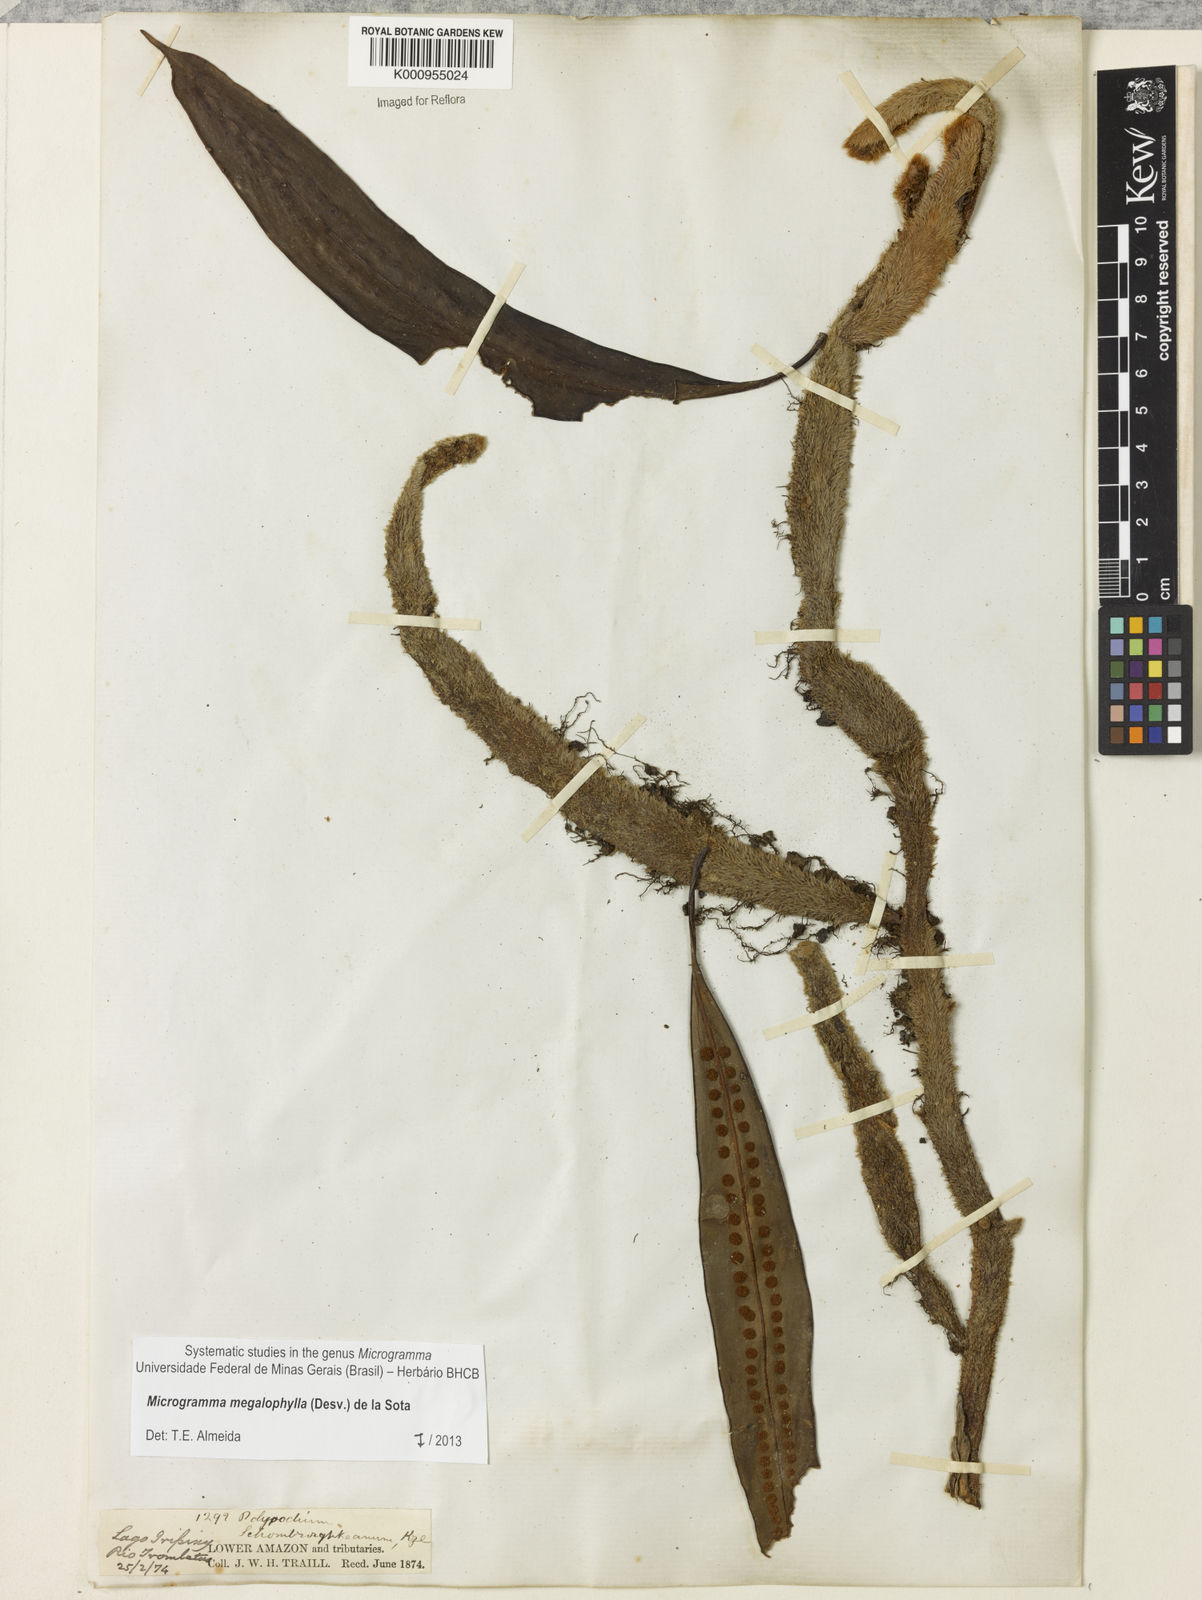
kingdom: Plantae
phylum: Tracheophyta
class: Polypodiopsida
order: Polypodiales
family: Polypodiaceae
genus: Microgramma
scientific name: Microgramma megalophylla
